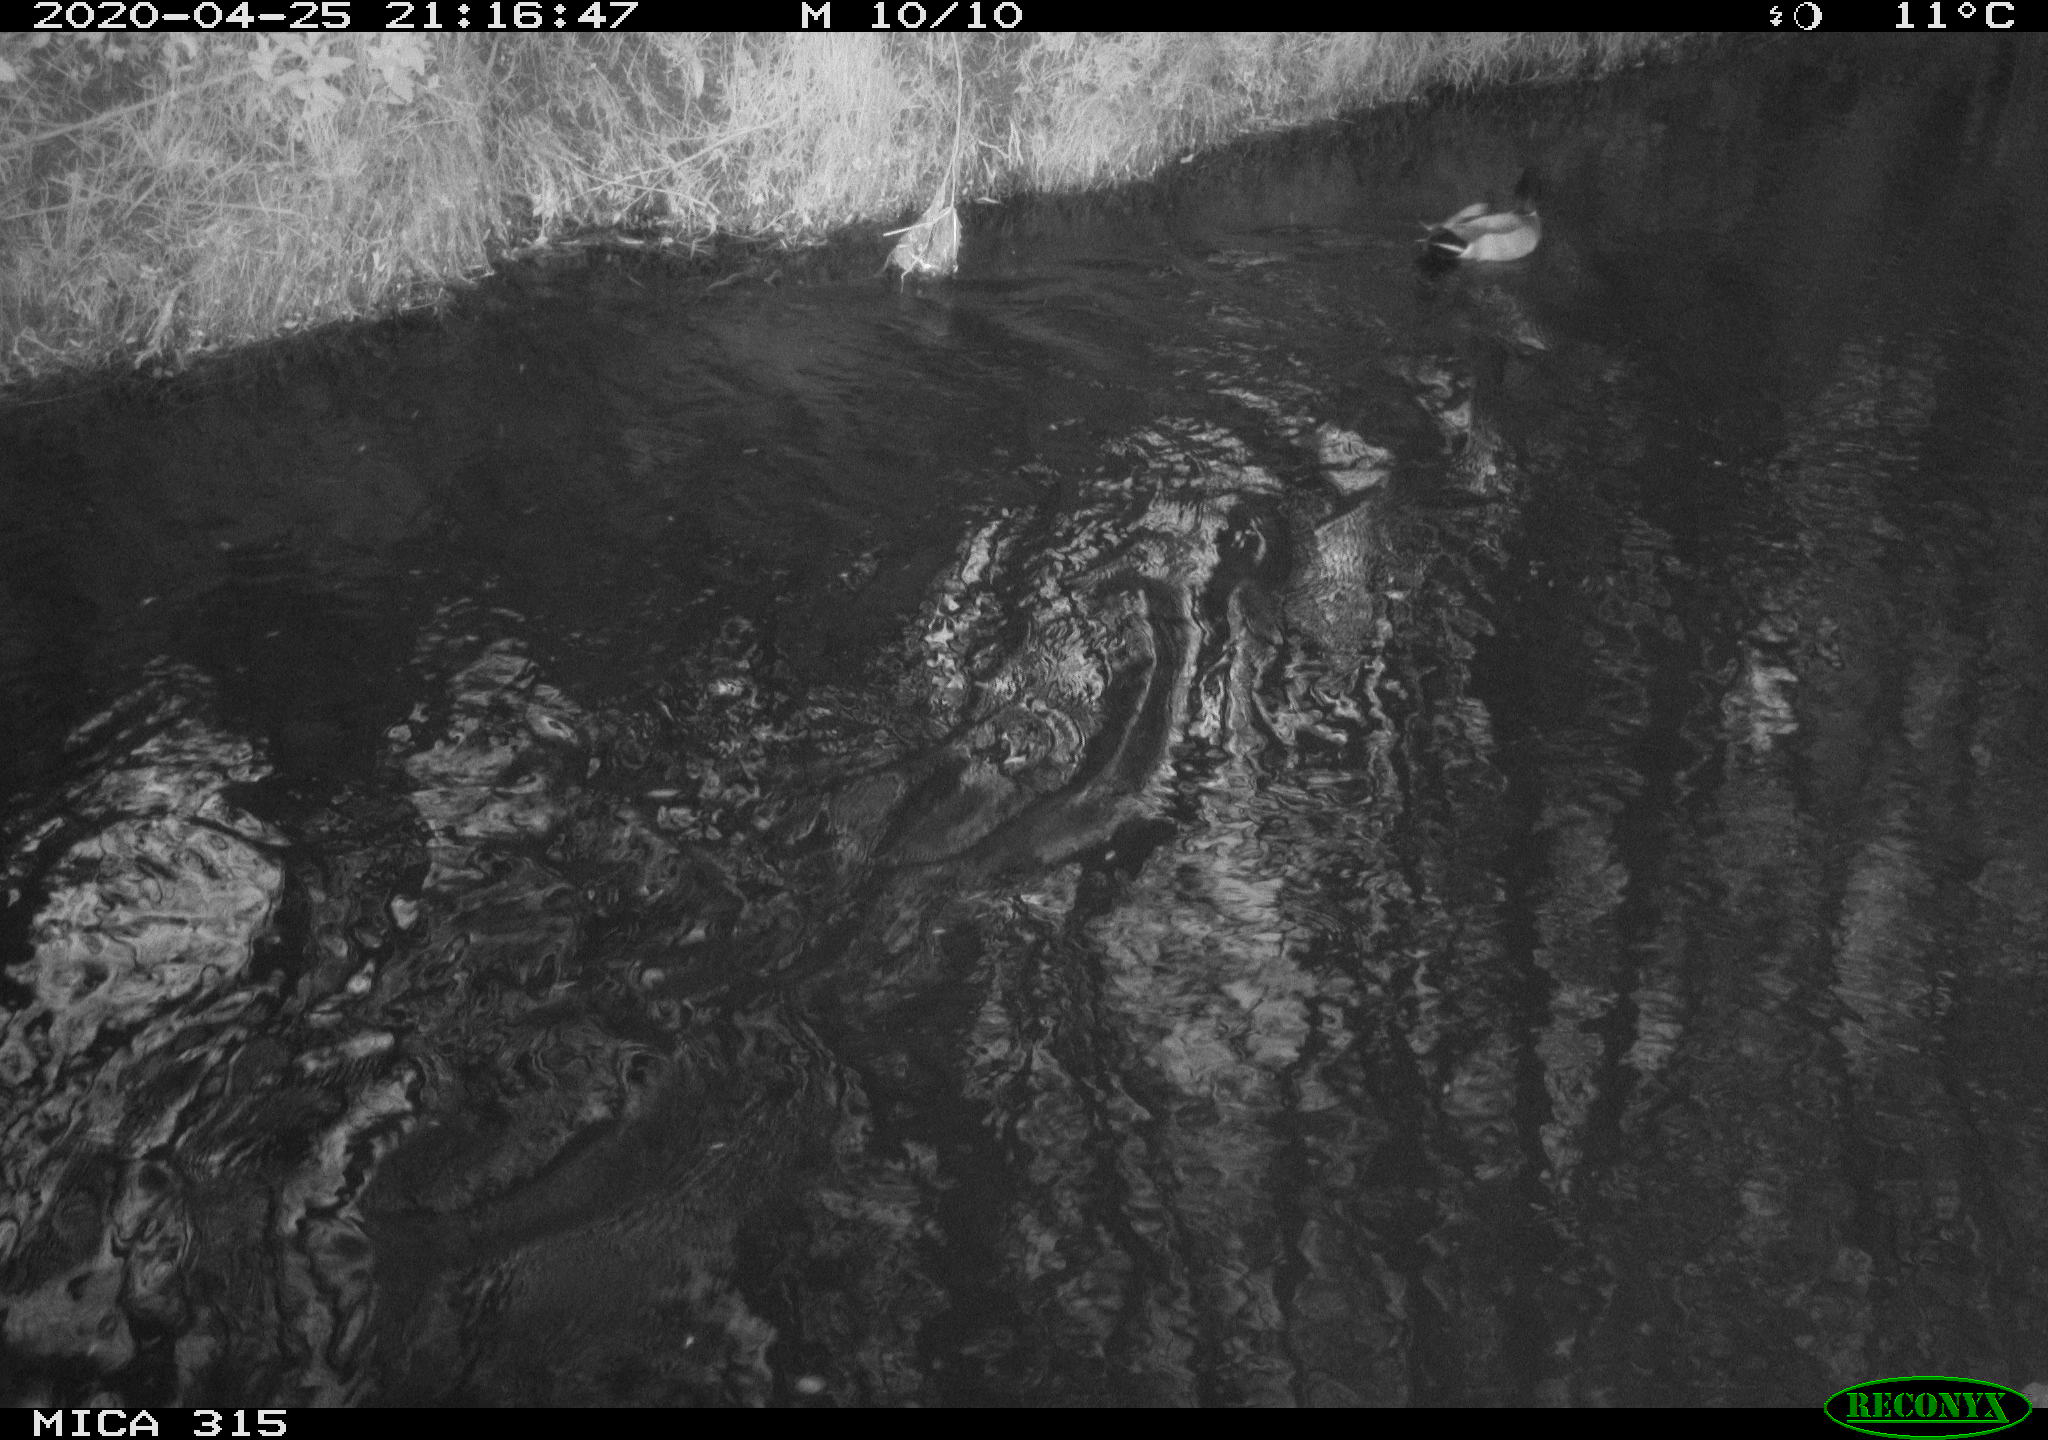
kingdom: Animalia
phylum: Chordata
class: Aves
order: Anseriformes
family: Anatidae
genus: Anas
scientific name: Anas platyrhynchos
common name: Mallard
